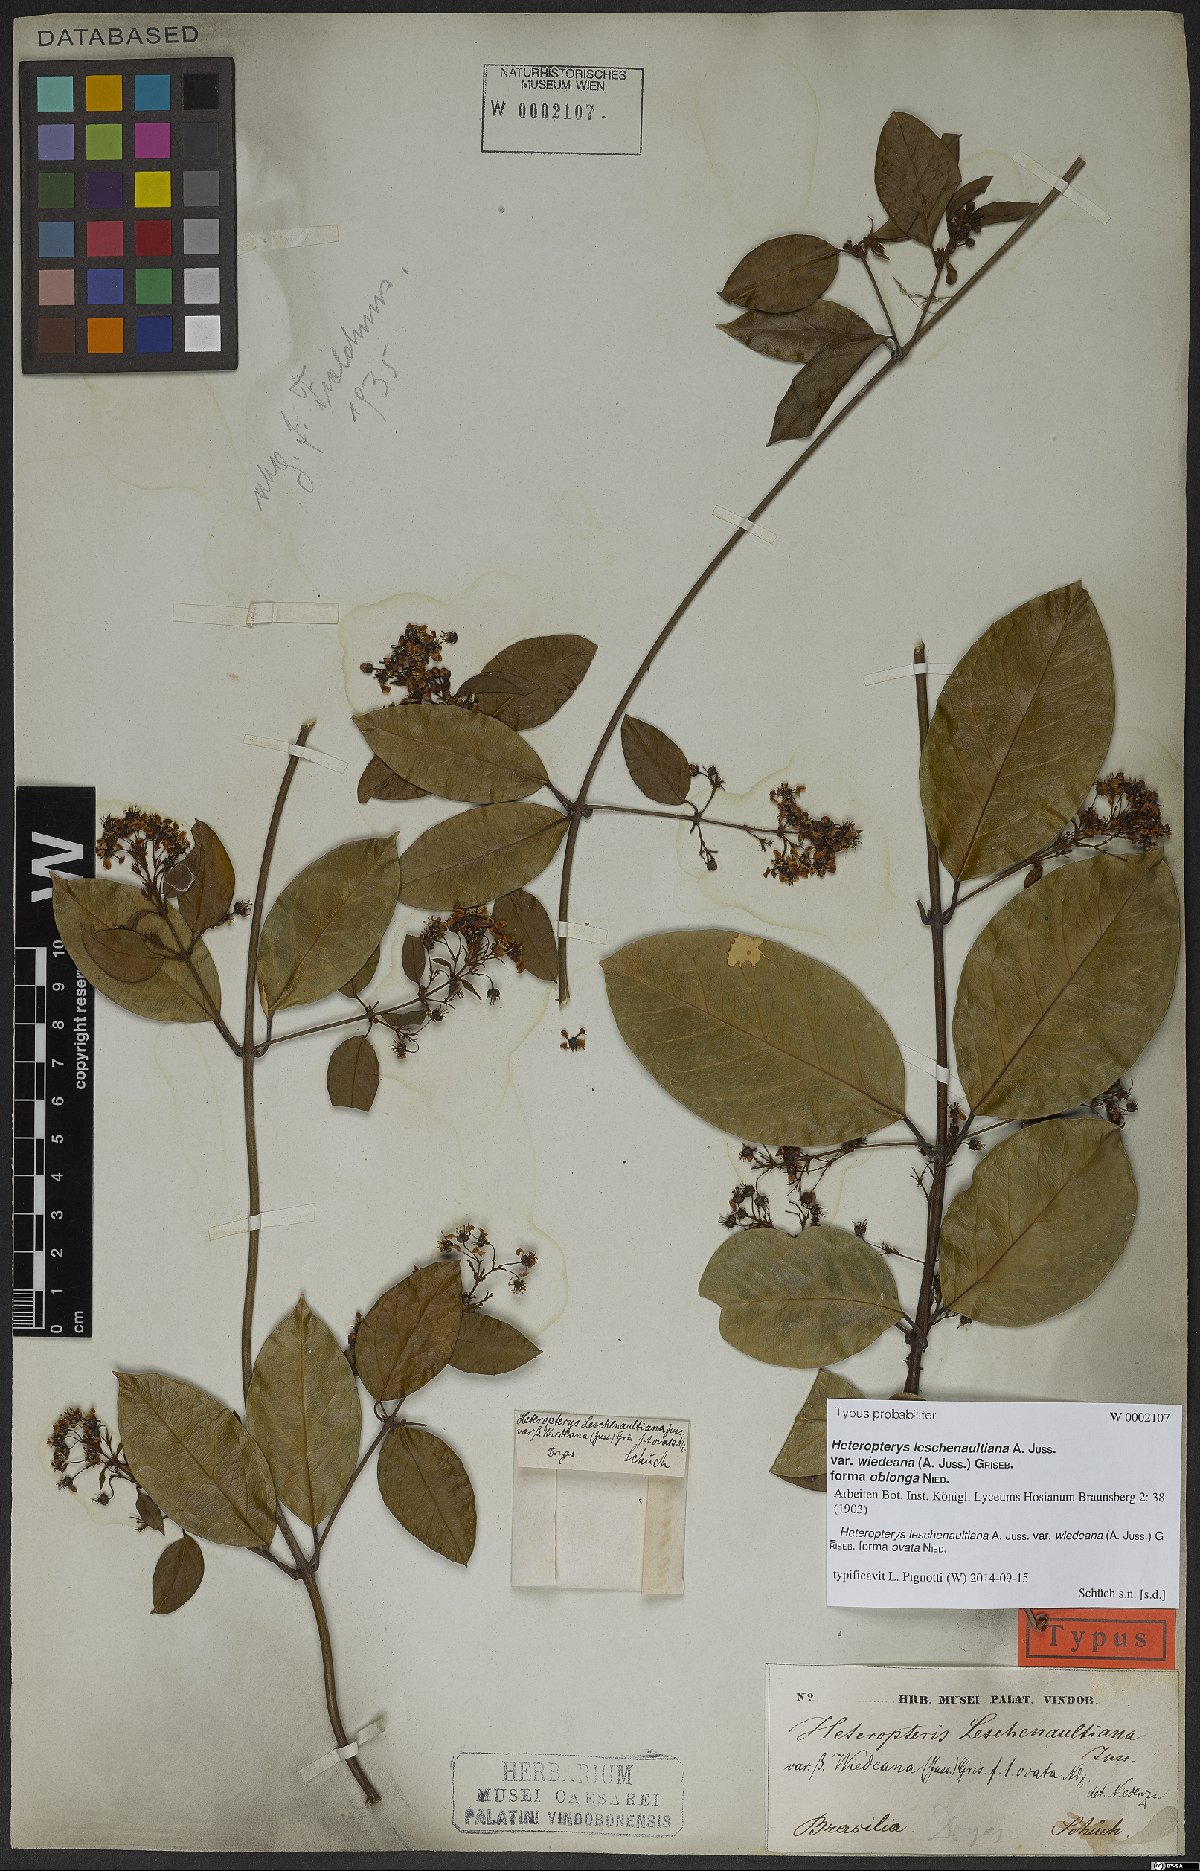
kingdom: Plantae
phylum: Tracheophyta
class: Magnoliopsida
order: Malpighiales
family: Malpighiaceae
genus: Heteropterys
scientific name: Heteropterys leschenaultiana
